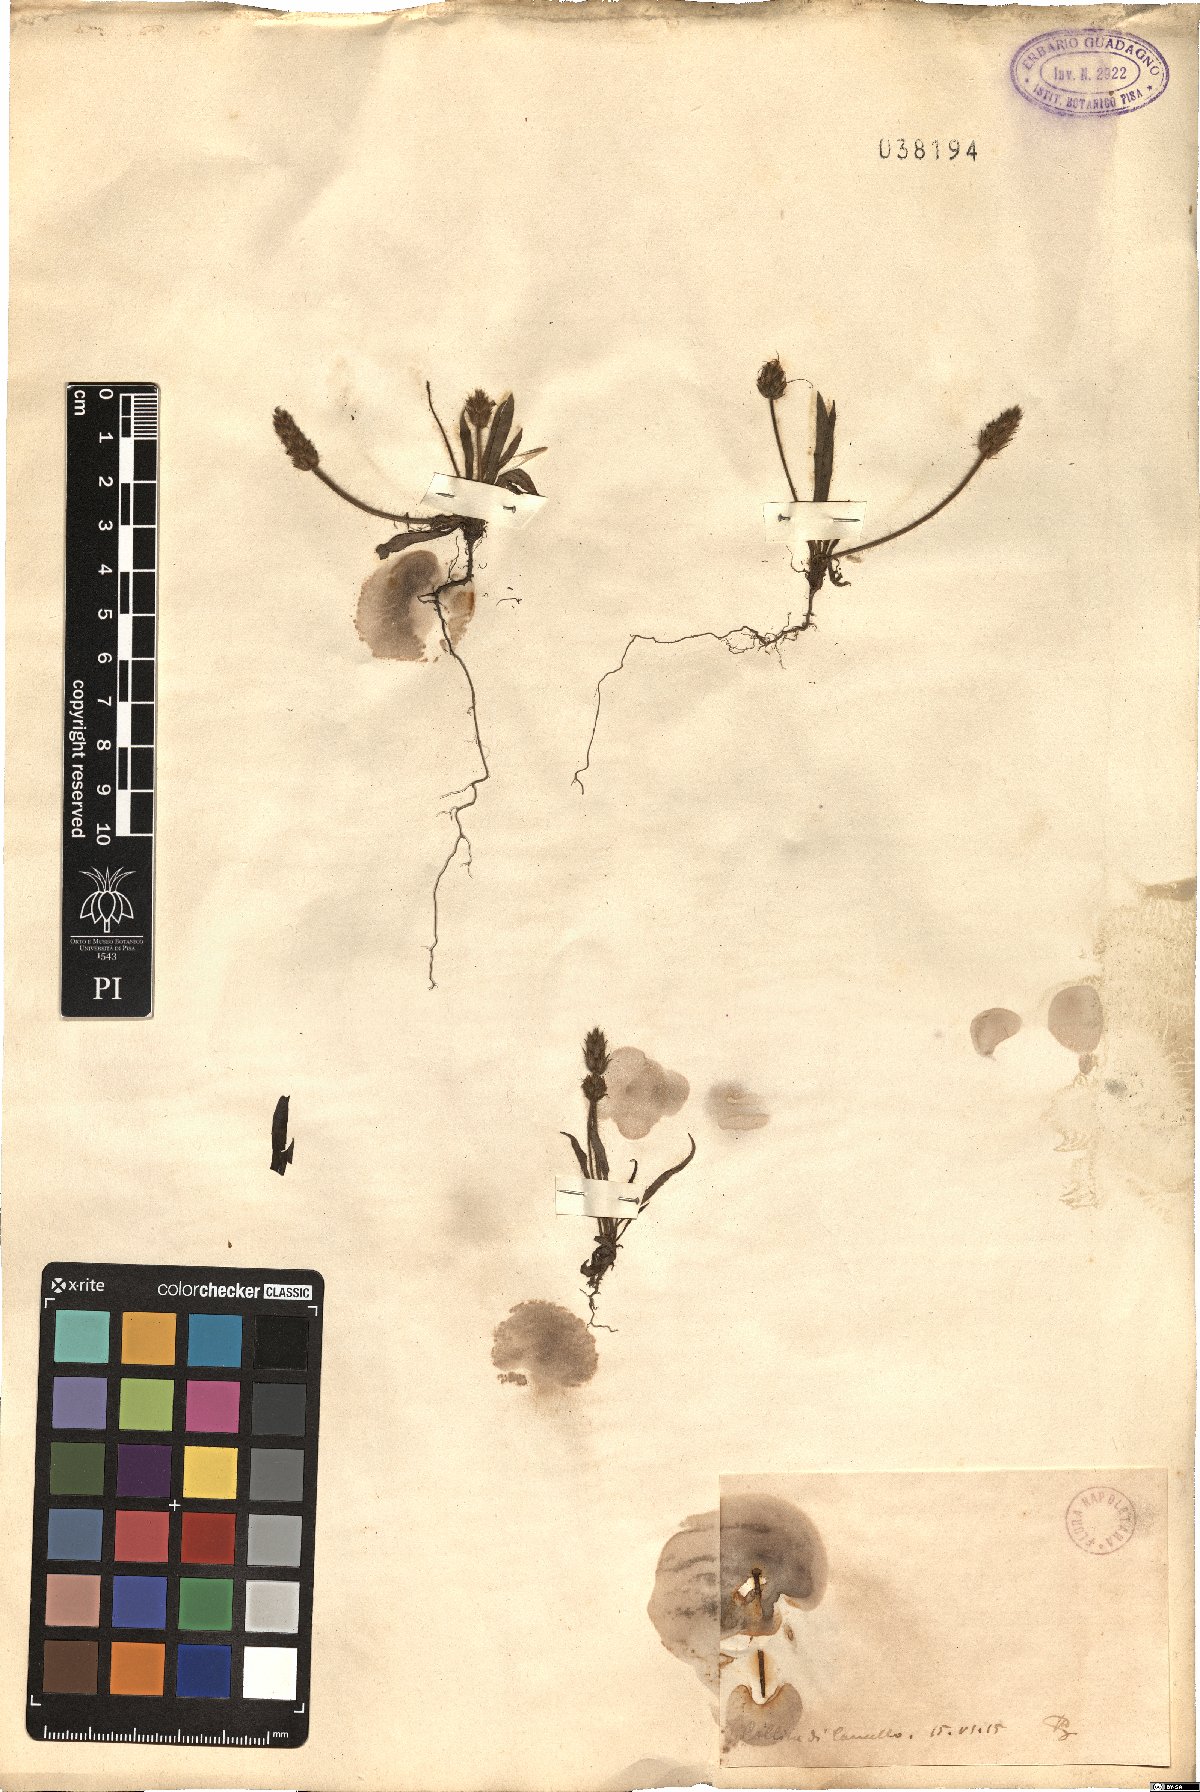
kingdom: Plantae
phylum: Tracheophyta
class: Magnoliopsida
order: Lamiales
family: Plantaginaceae
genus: Plantago
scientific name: Plantago
